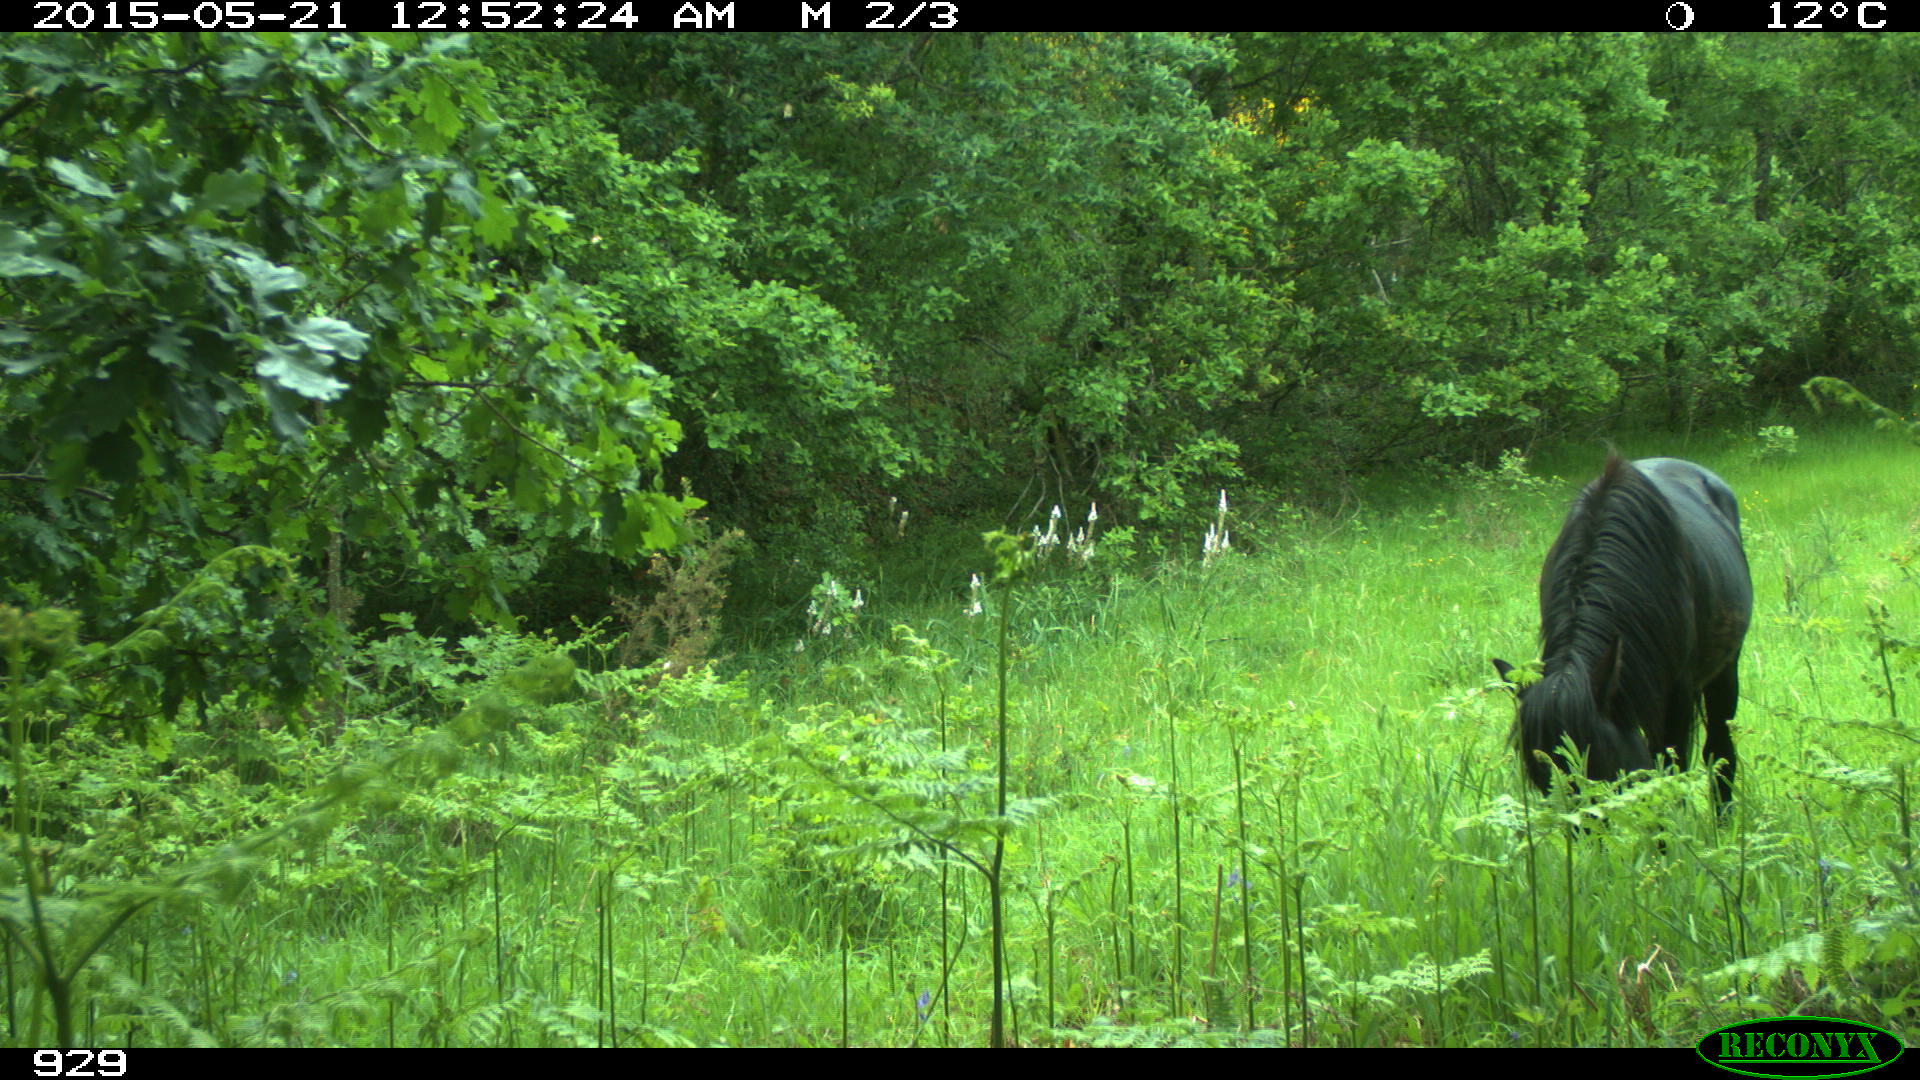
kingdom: Animalia
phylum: Chordata
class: Mammalia
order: Perissodactyla
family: Equidae
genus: Equus
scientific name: Equus caballus
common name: Horse
